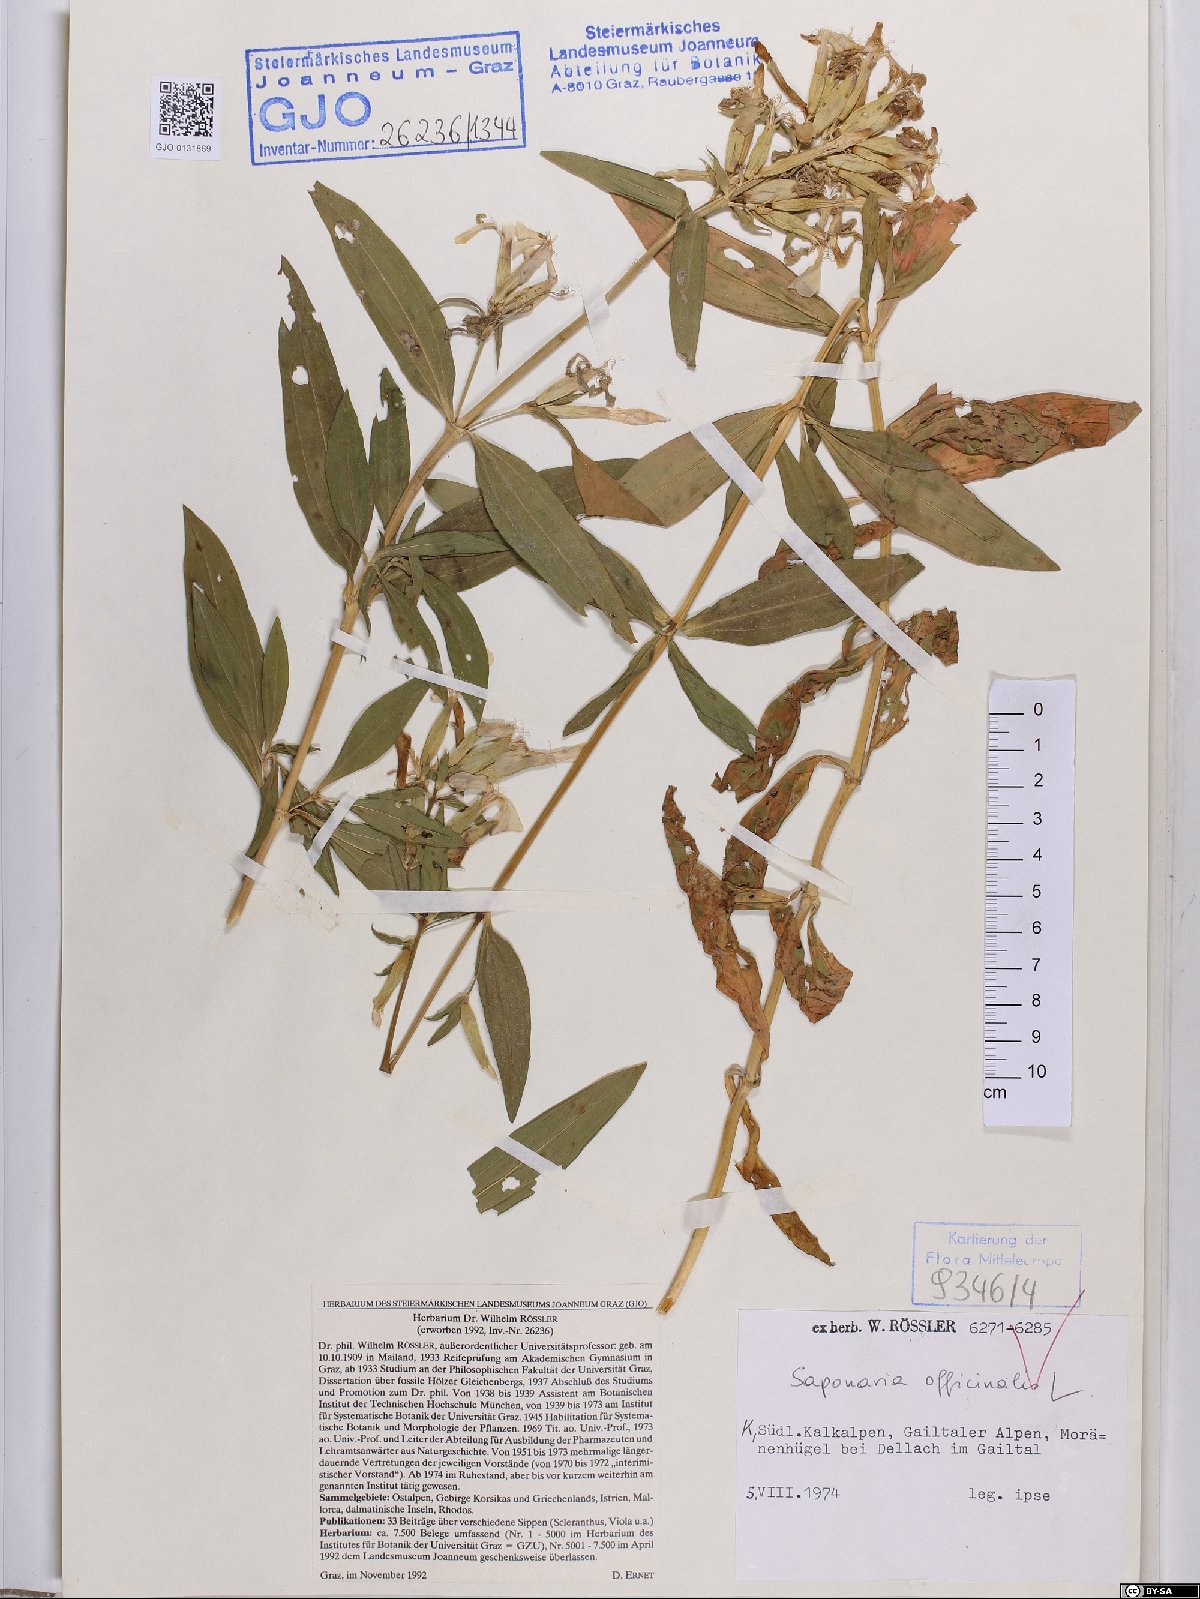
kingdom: Plantae
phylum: Tracheophyta
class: Magnoliopsida
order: Caryophyllales
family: Caryophyllaceae
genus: Saponaria
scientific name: Saponaria officinalis
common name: Soapwort
